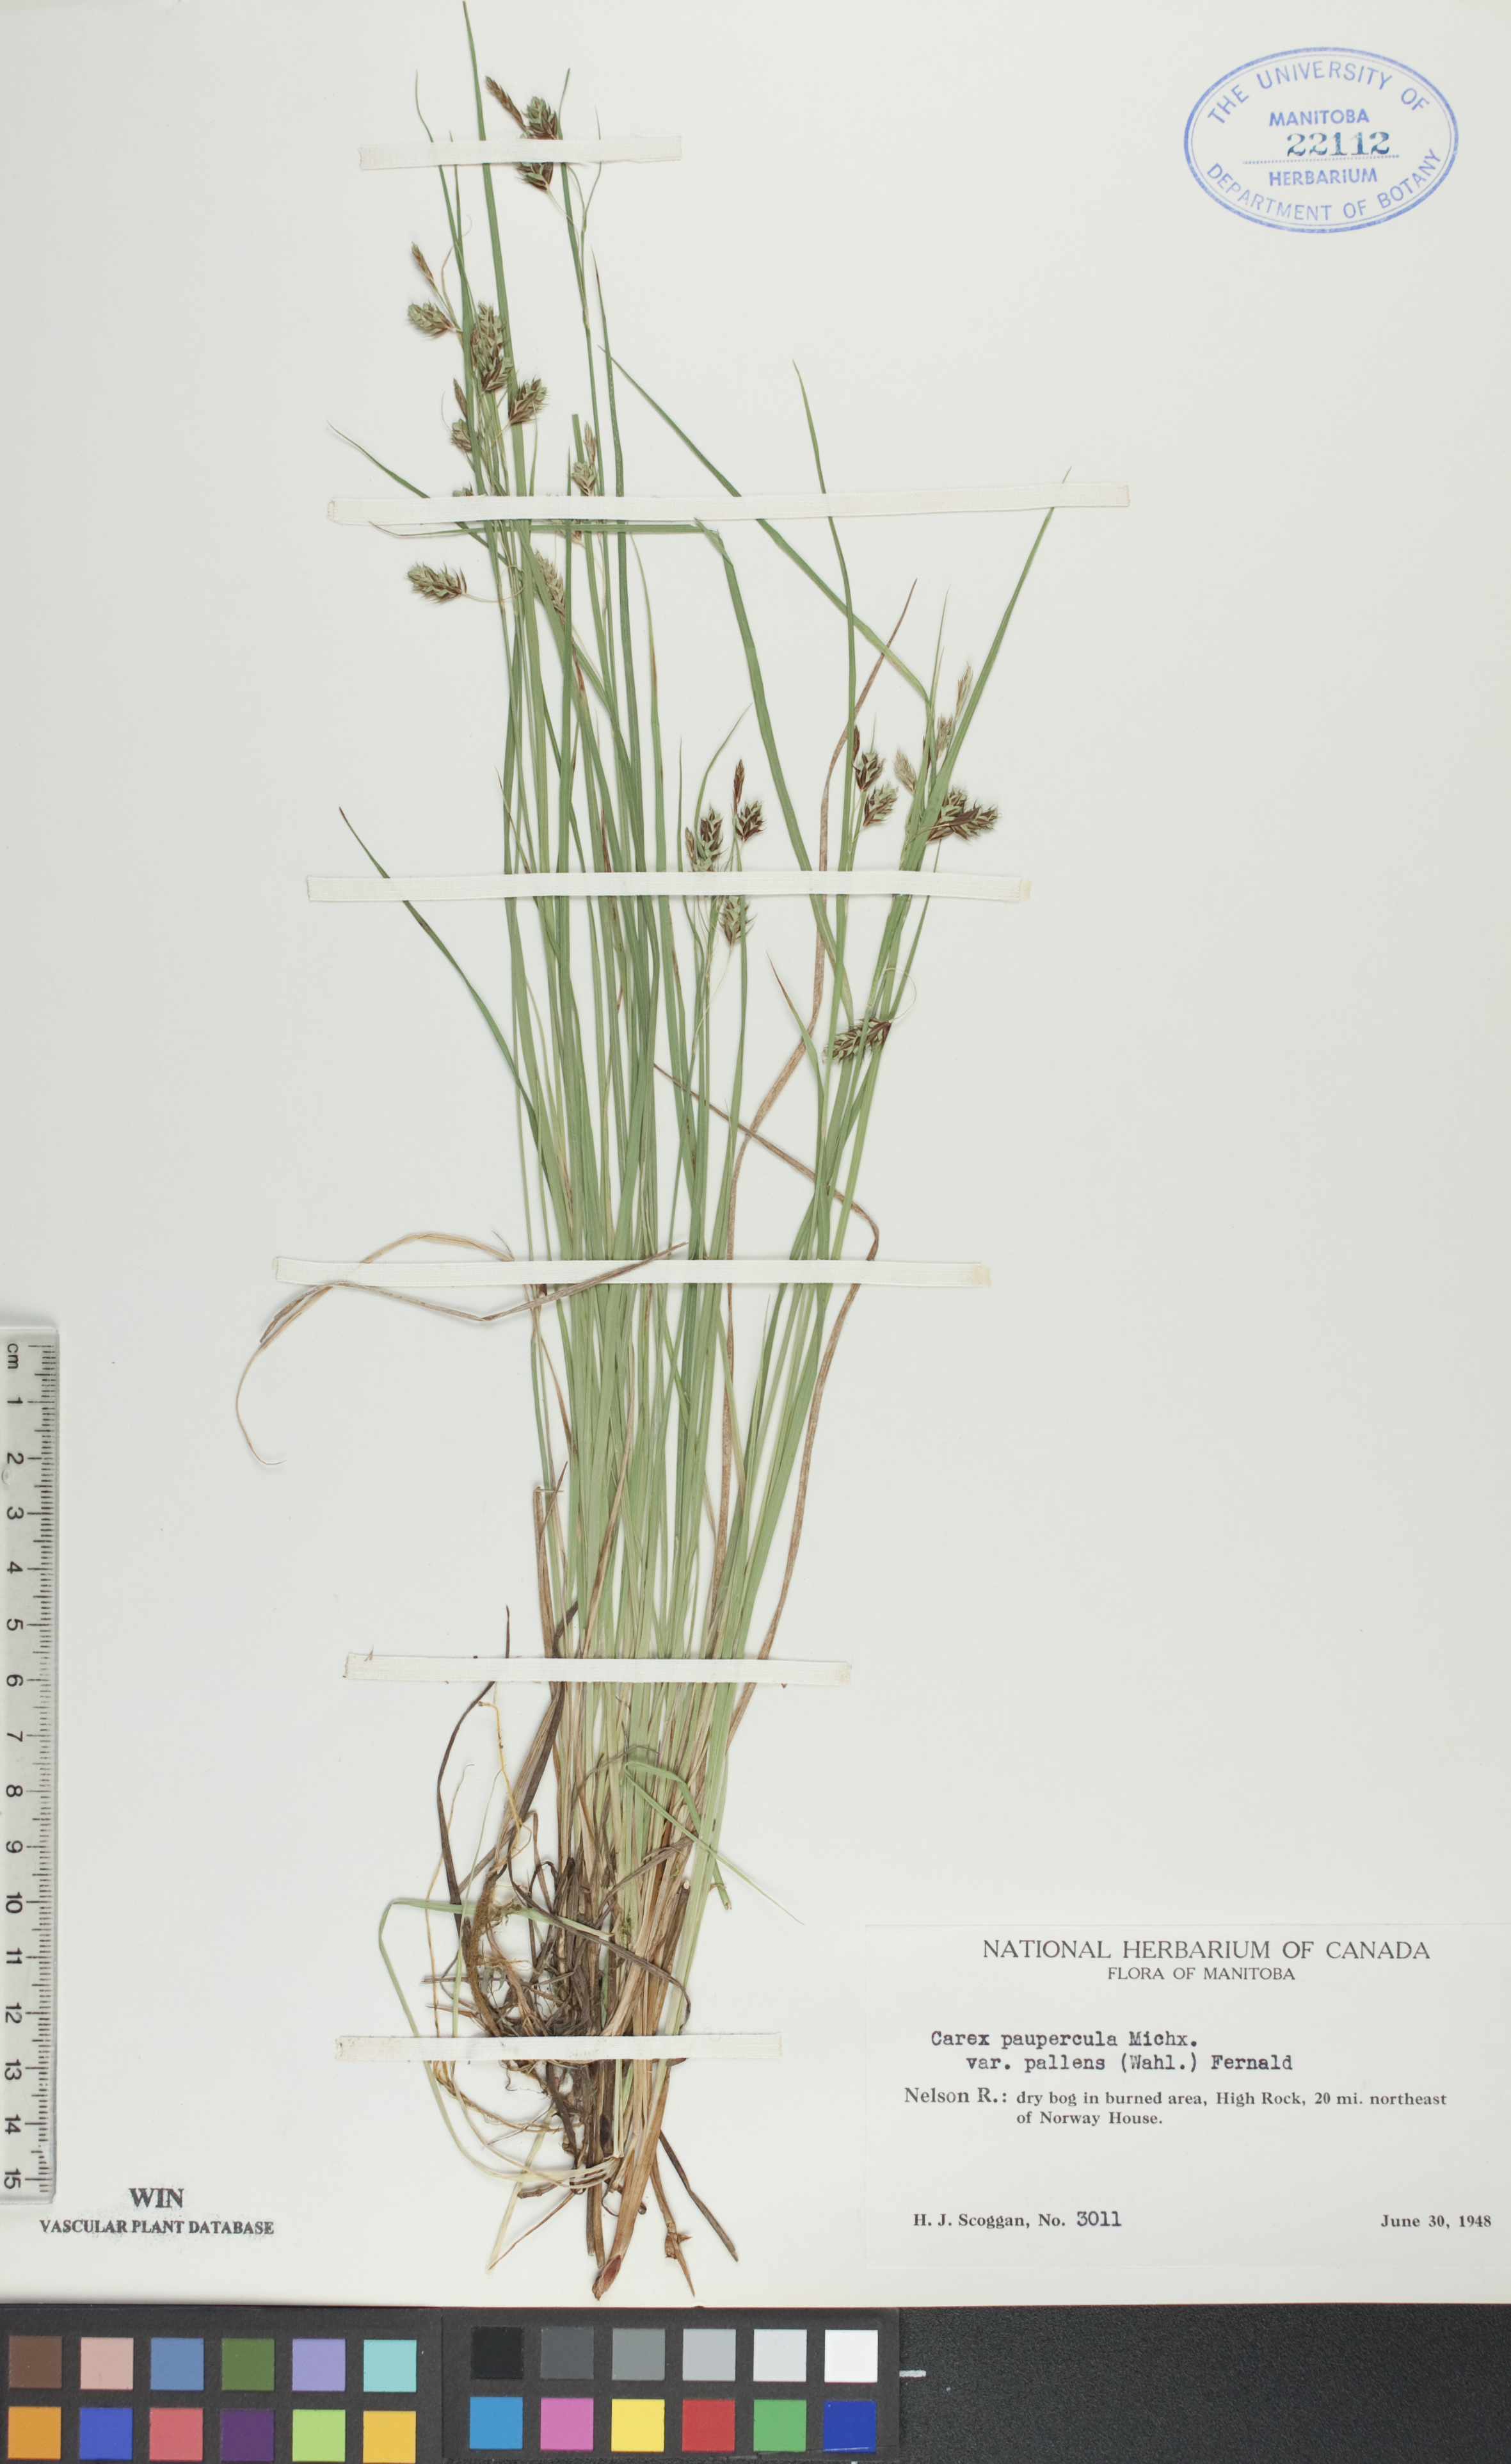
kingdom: Plantae
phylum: Tracheophyta
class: Liliopsida
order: Poales
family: Cyperaceae
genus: Carex
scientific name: Carex magellanica
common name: Bog sedge
